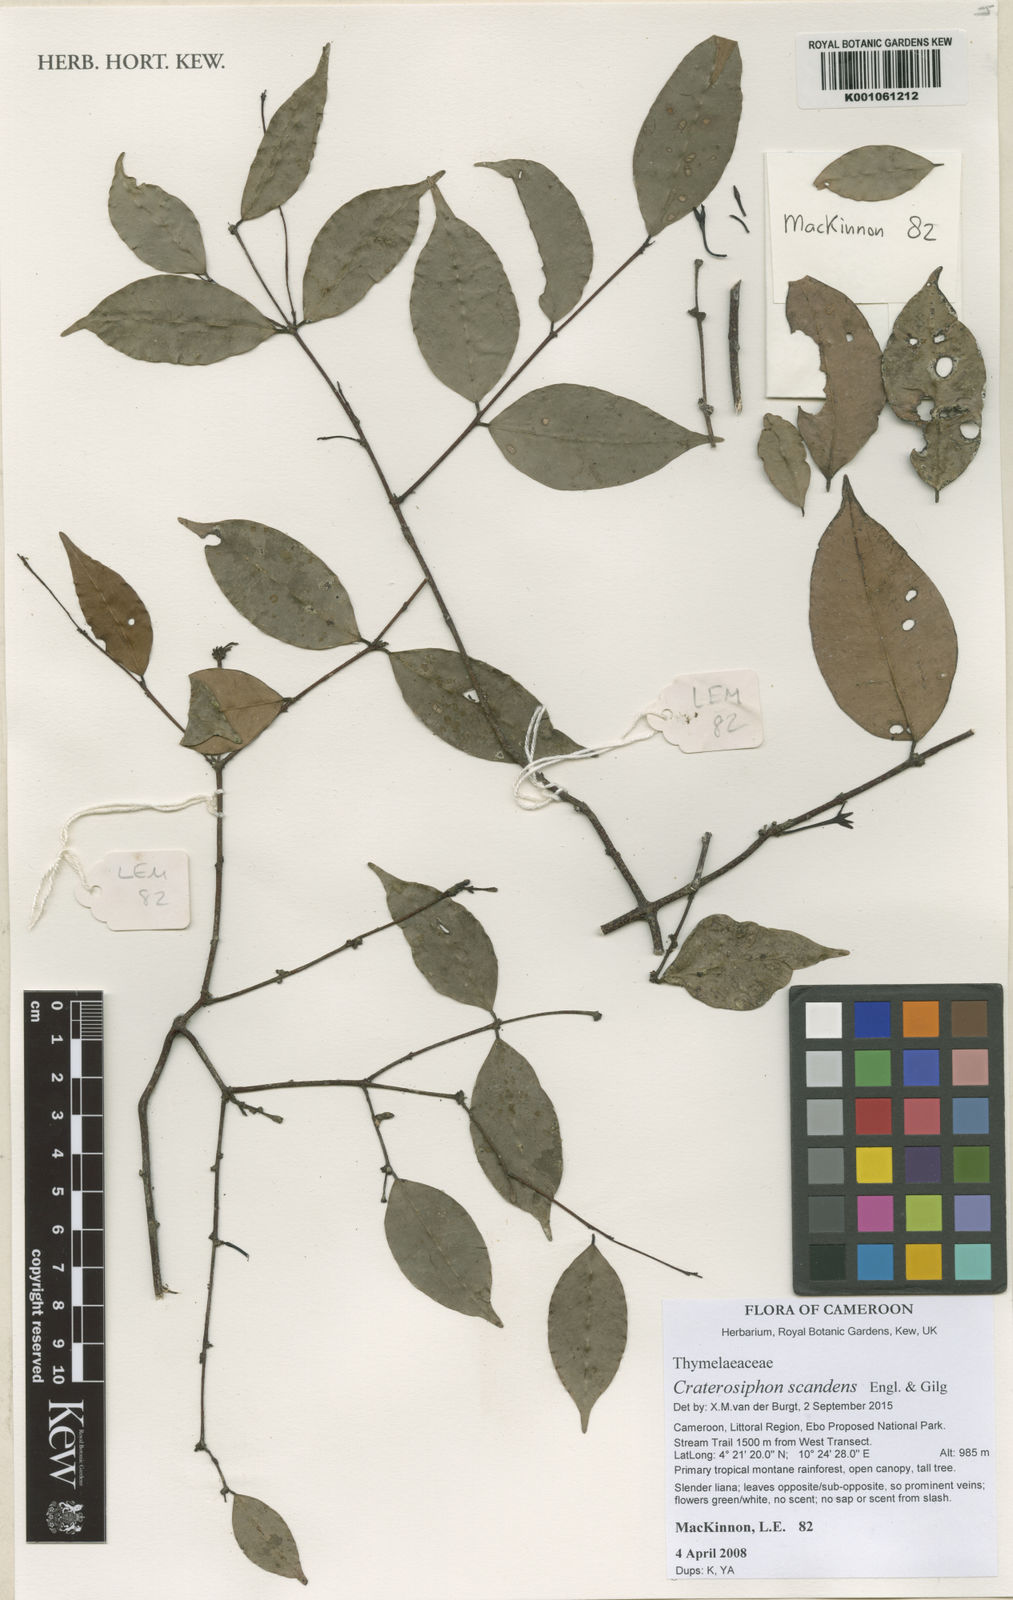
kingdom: Plantae
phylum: Tracheophyta
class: Magnoliopsida
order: Malvales
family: Thymelaeaceae
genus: Craterosiphon
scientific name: Craterosiphon scandens
